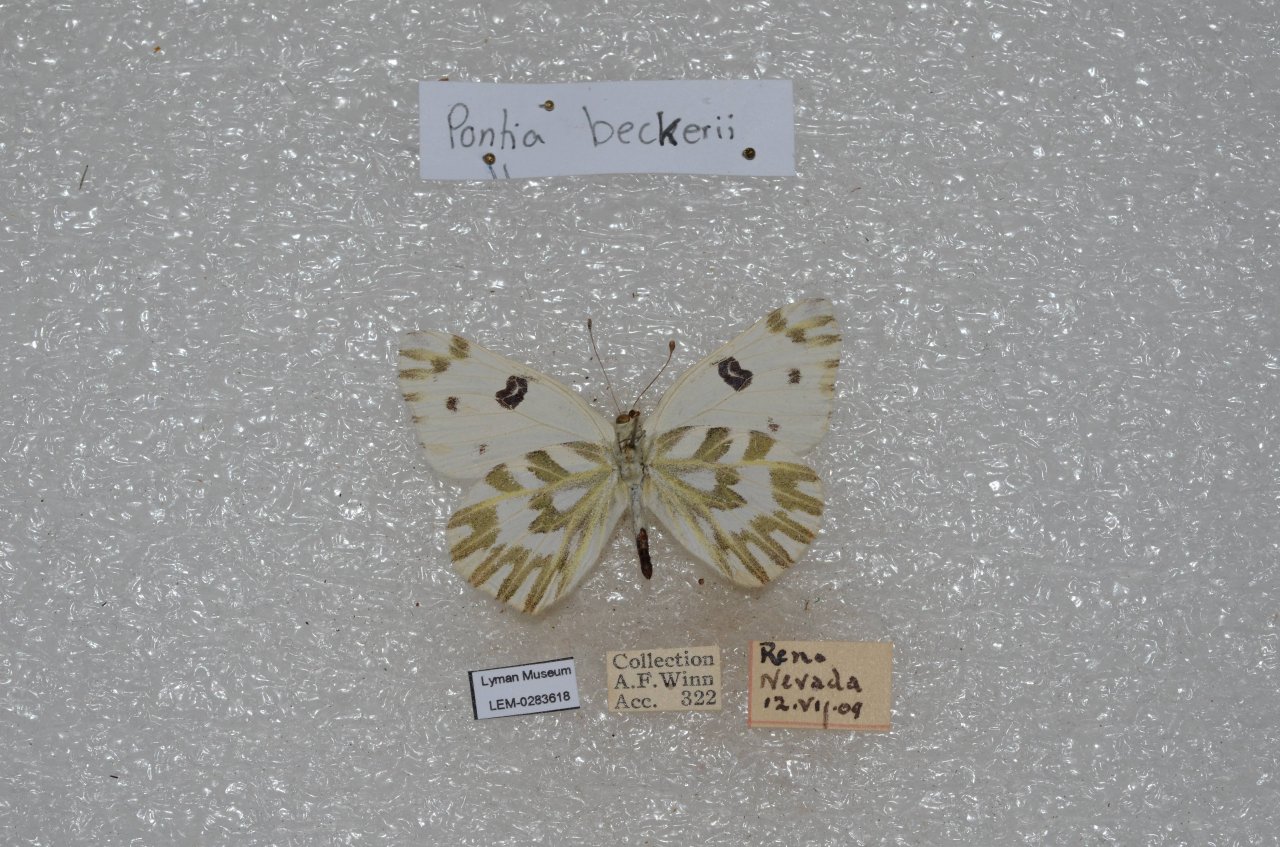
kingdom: Animalia
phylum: Arthropoda
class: Insecta
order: Lepidoptera
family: Pieridae
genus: Pontia
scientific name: Pontia beckerii
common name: Becker's White
